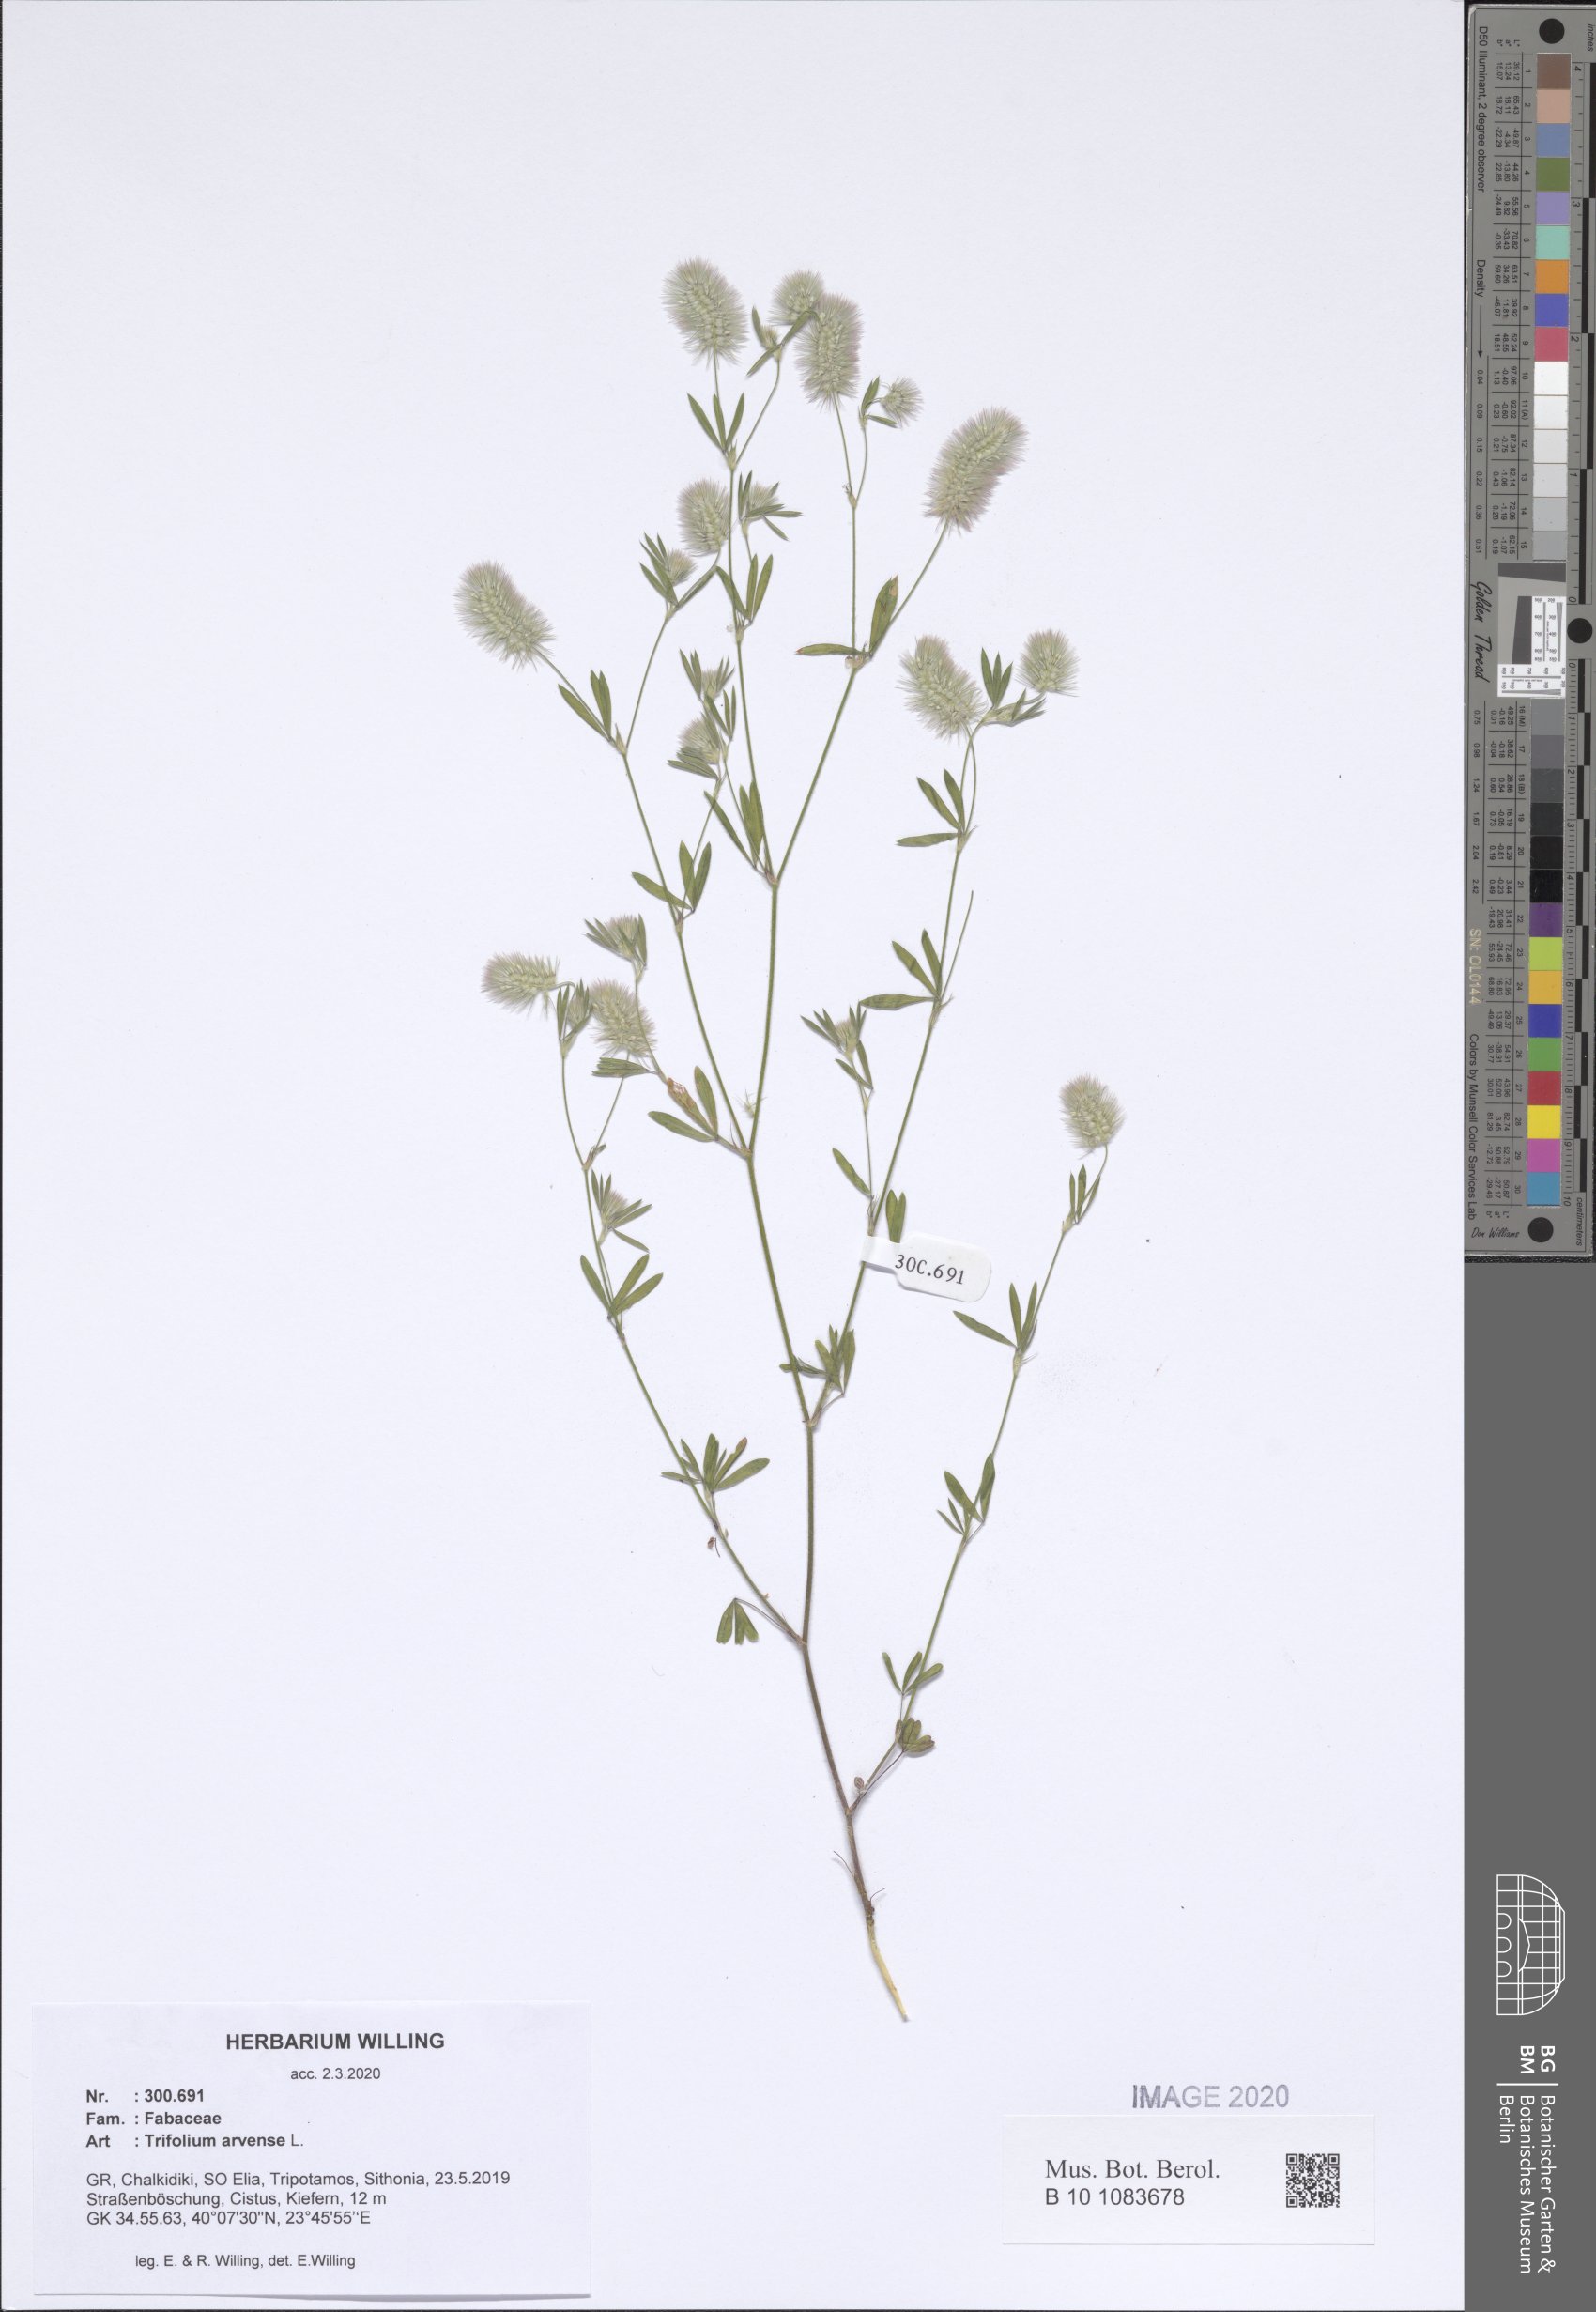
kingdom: Plantae
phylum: Tracheophyta
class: Magnoliopsida
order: Fabales
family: Fabaceae
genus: Trifolium
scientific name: Trifolium arvense
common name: Hare's-foot clover
